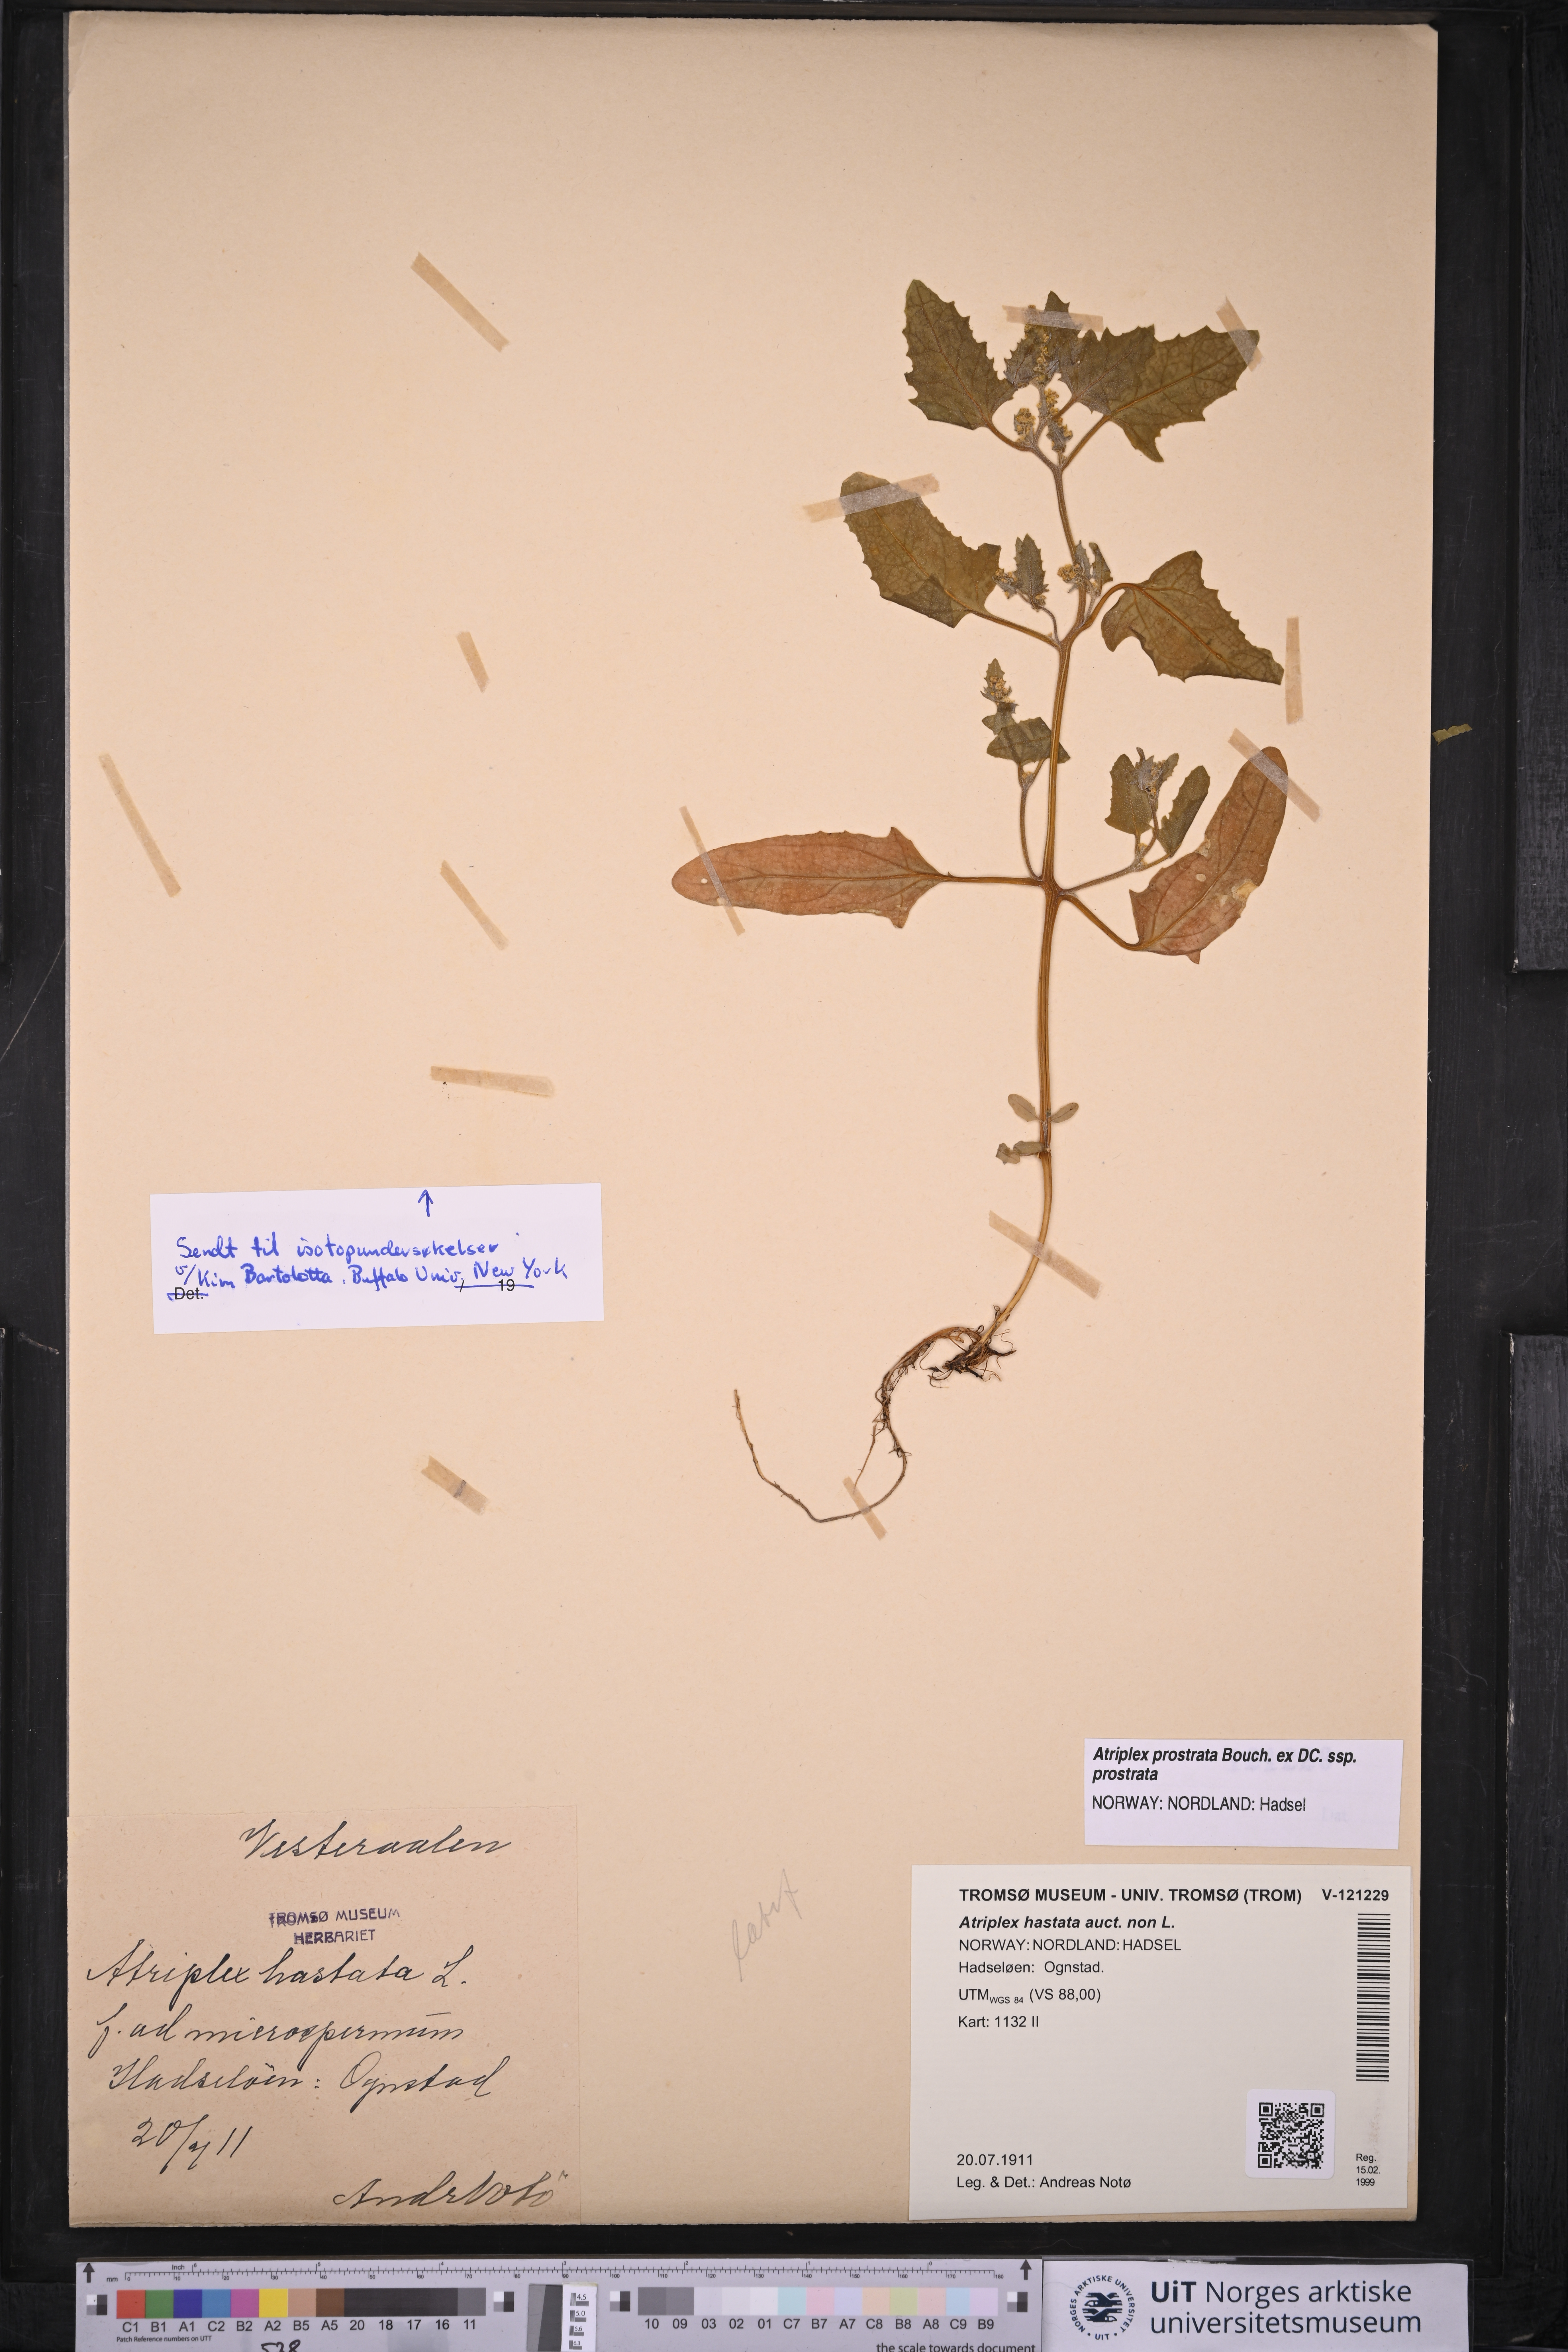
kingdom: Plantae
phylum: Tracheophyta
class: Magnoliopsida
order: Caryophyllales
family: Amaranthaceae
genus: Atriplex
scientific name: Atriplex calotheca
